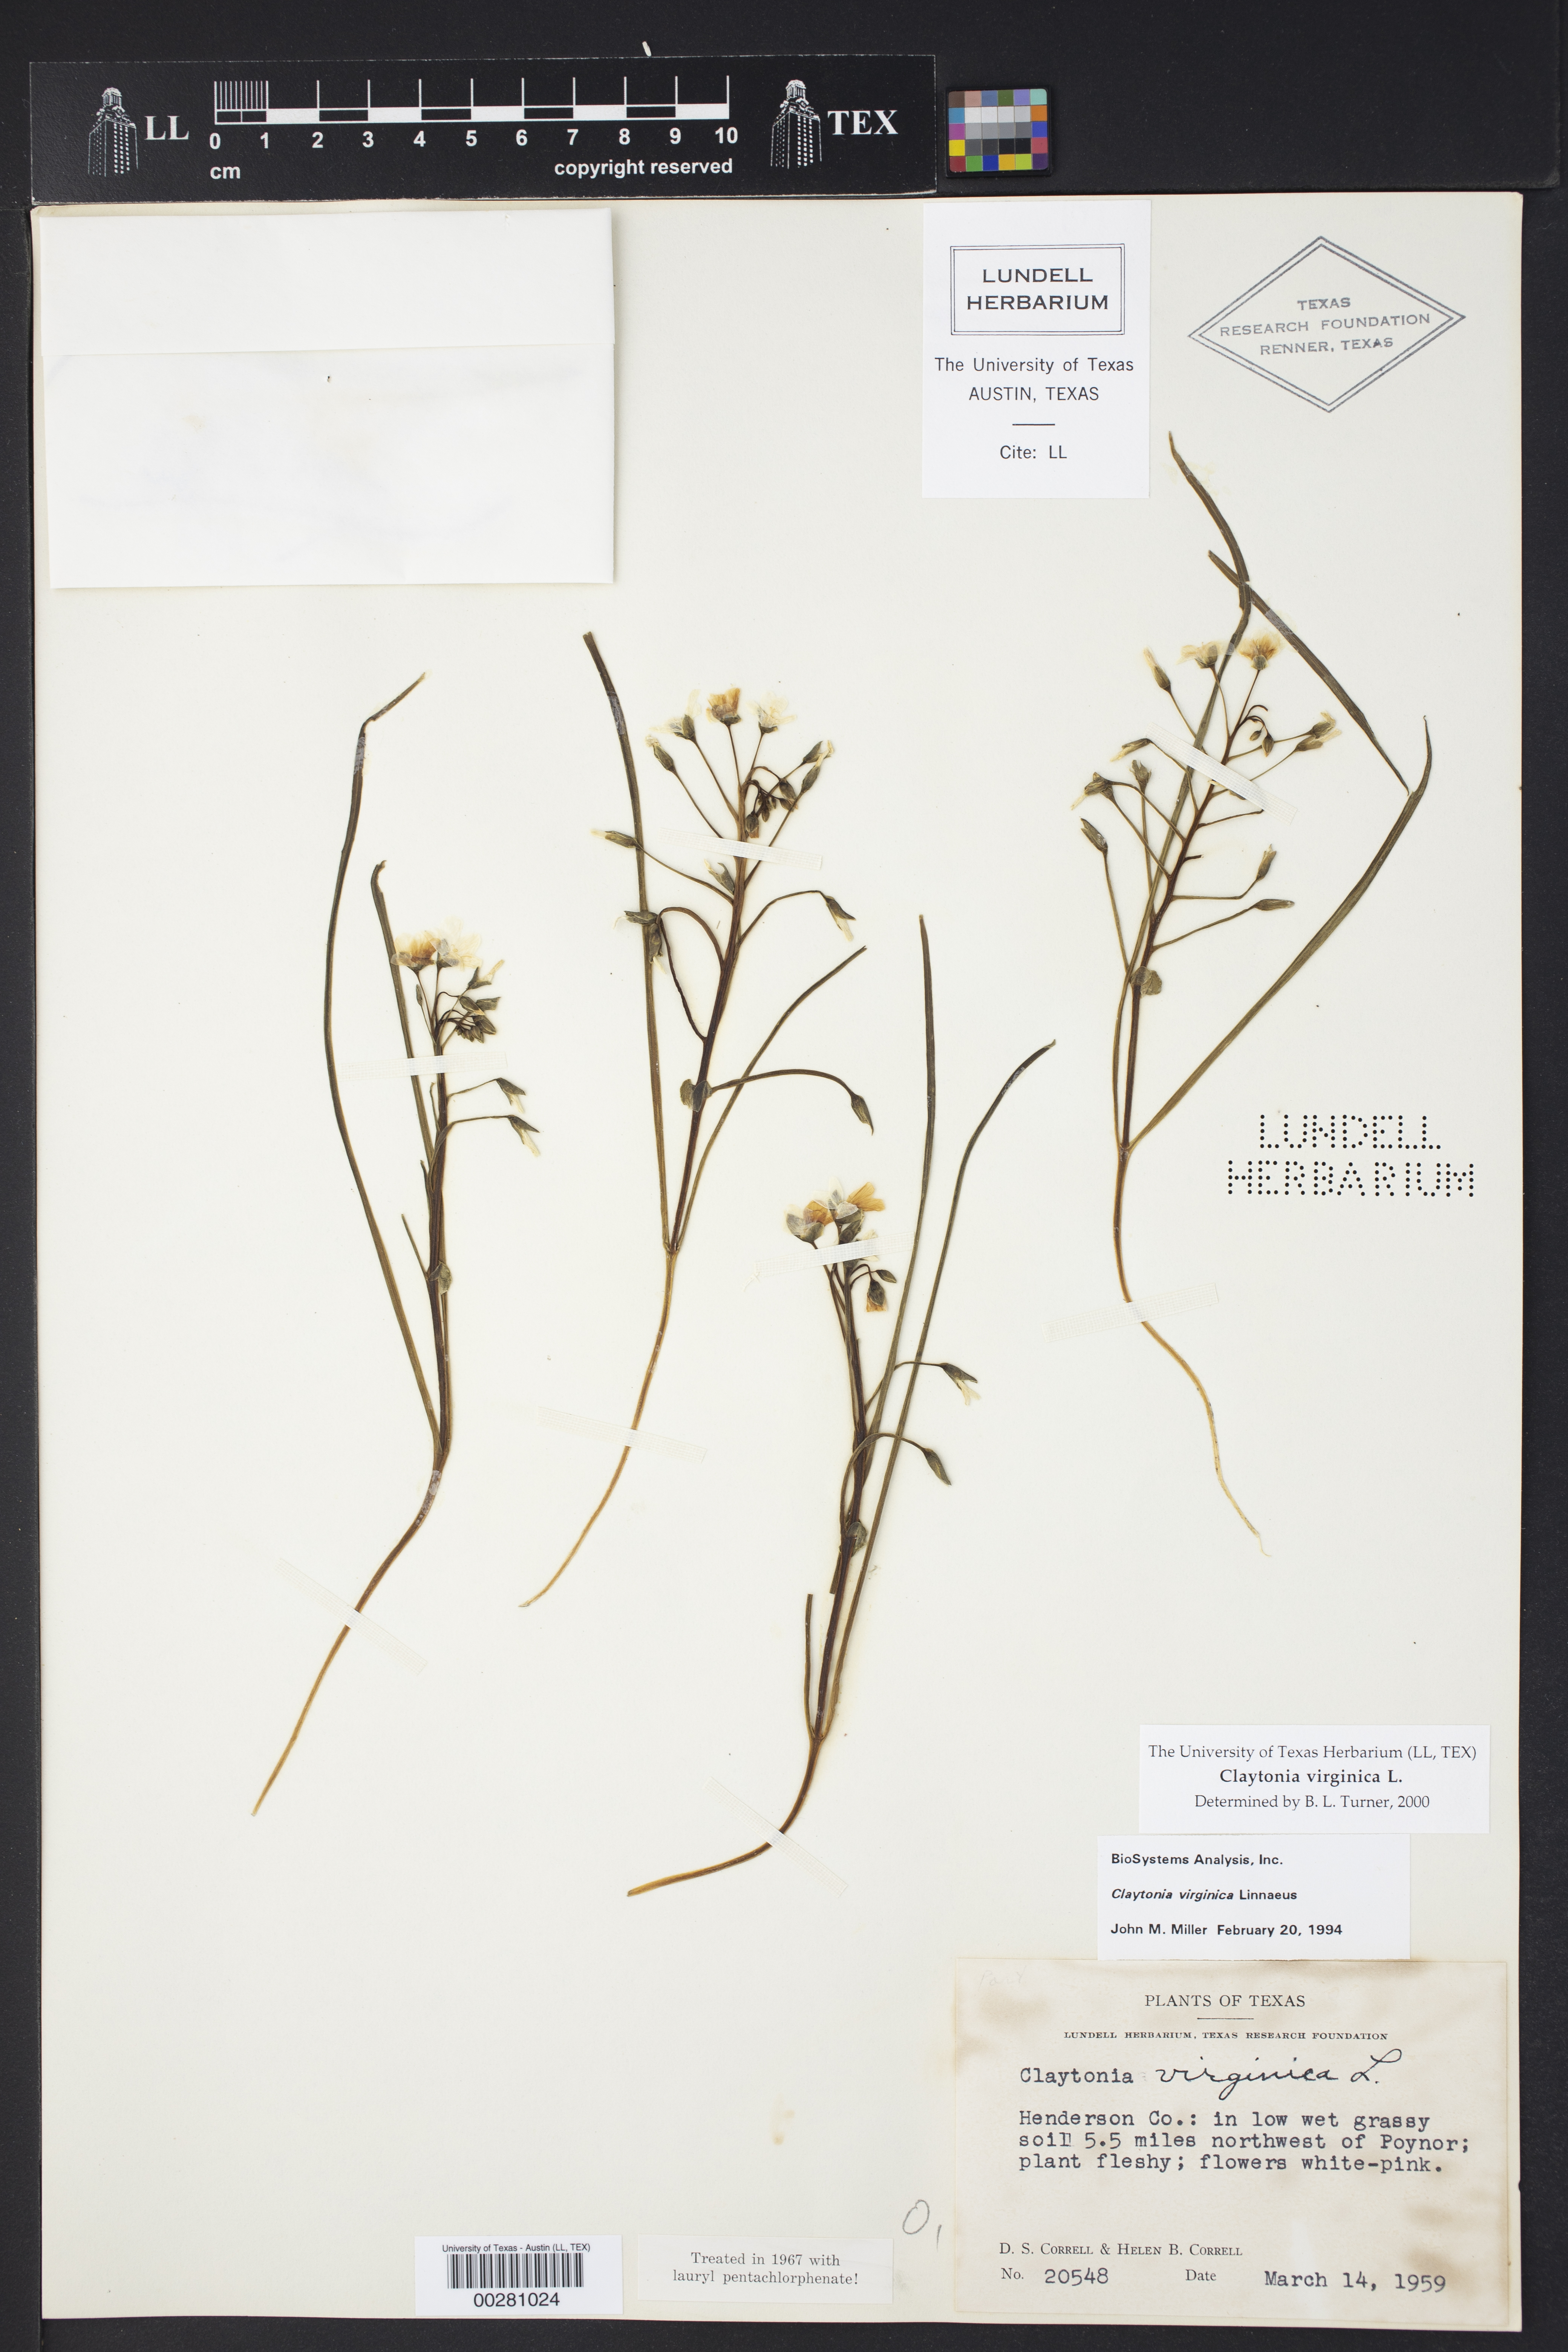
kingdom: Plantae
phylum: Tracheophyta
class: Magnoliopsida
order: Caryophyllales
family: Montiaceae
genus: Claytonia
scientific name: Claytonia virginica
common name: Virginia springbeauty
